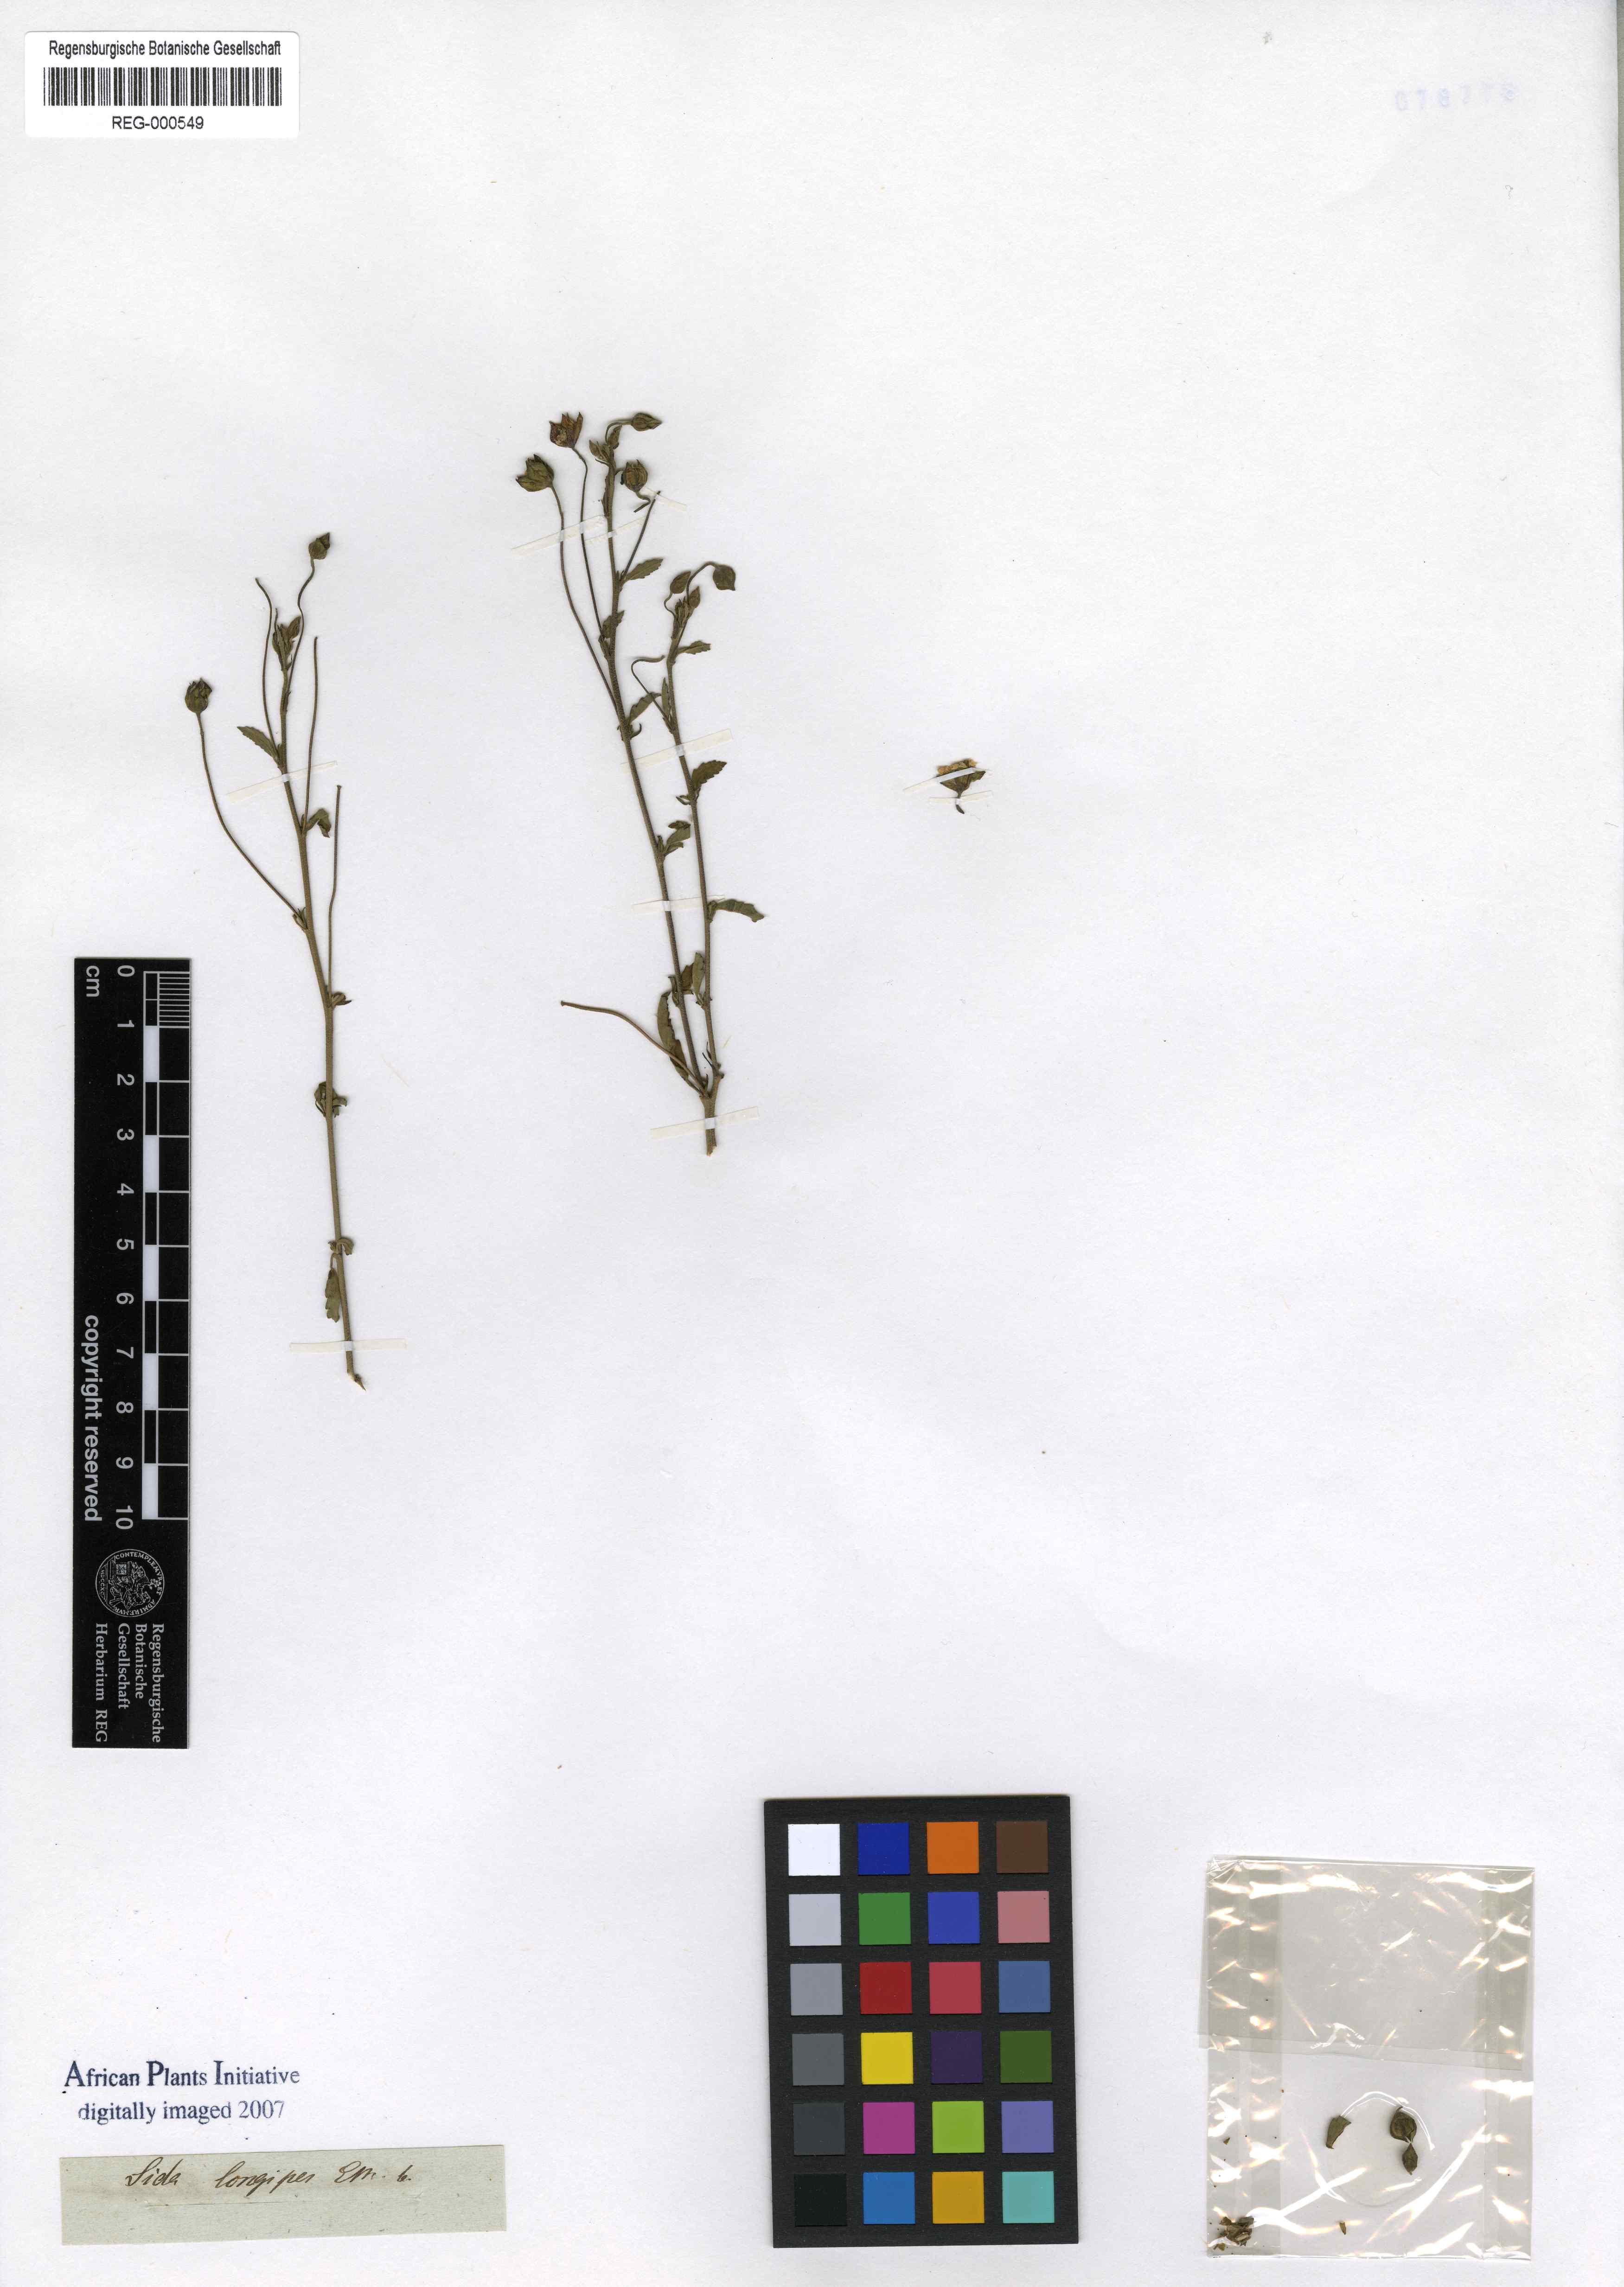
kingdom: Plantae
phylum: Tracheophyta
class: Magnoliopsida
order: Malvales
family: Malvaceae
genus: Sida
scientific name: Sida lancifolia
